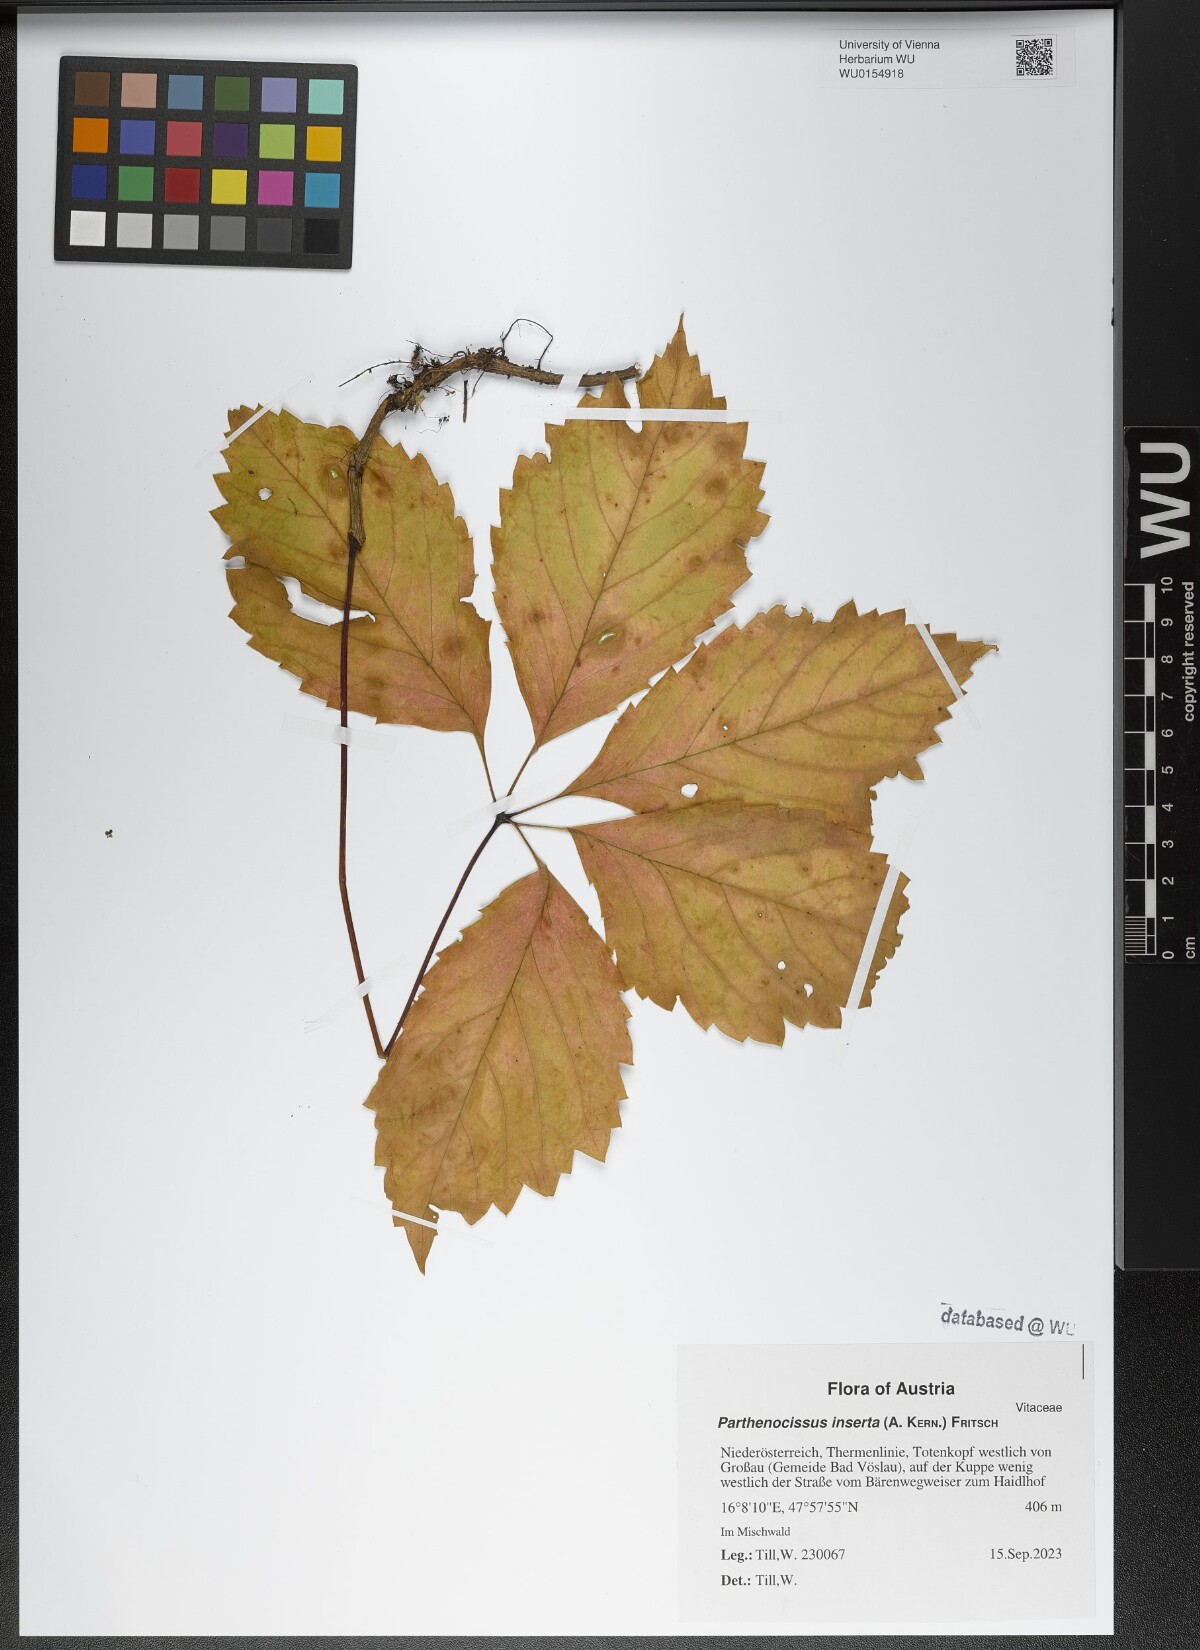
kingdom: Plantae
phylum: Tracheophyta
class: Magnoliopsida
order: Vitales
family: Vitaceae
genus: Parthenocissus
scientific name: Parthenocissus inserta
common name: False virginia-creeper
